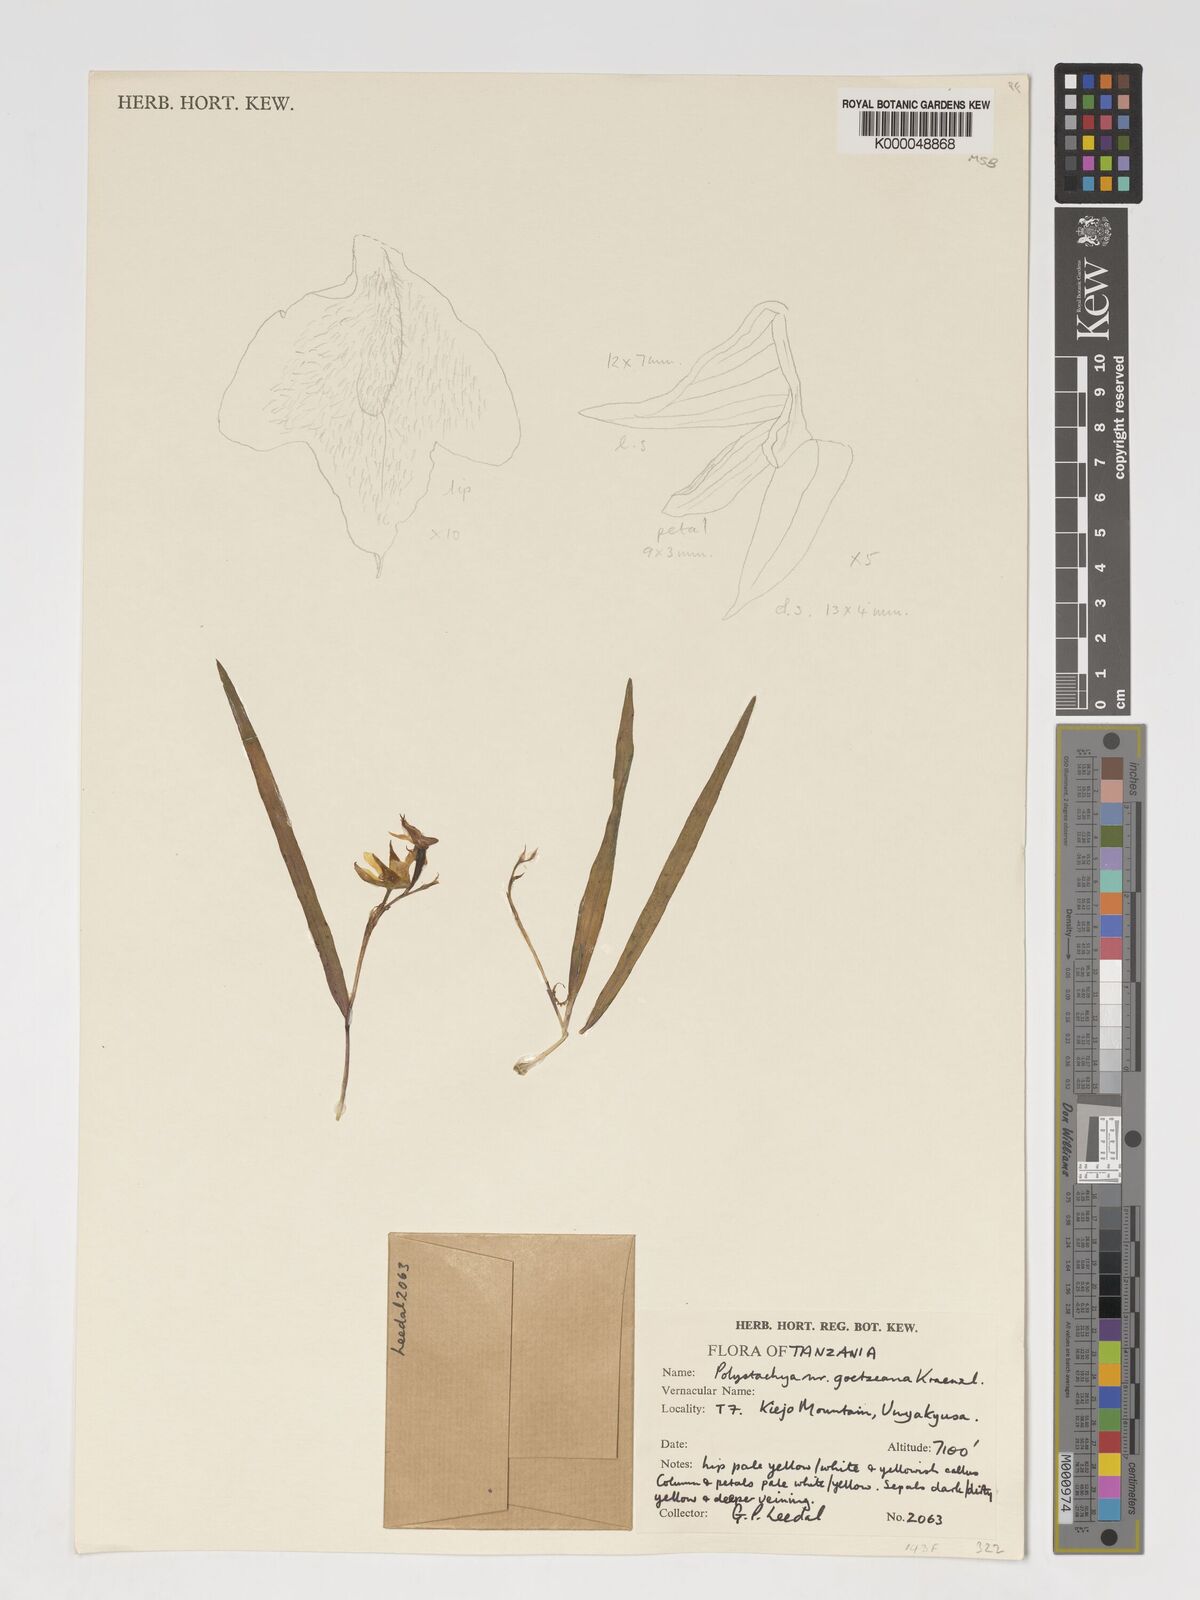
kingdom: Plantae
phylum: Tracheophyta
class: Liliopsida
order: Asparagales
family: Orchidaceae
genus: Polystachya
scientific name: Polystachya goetzeana
